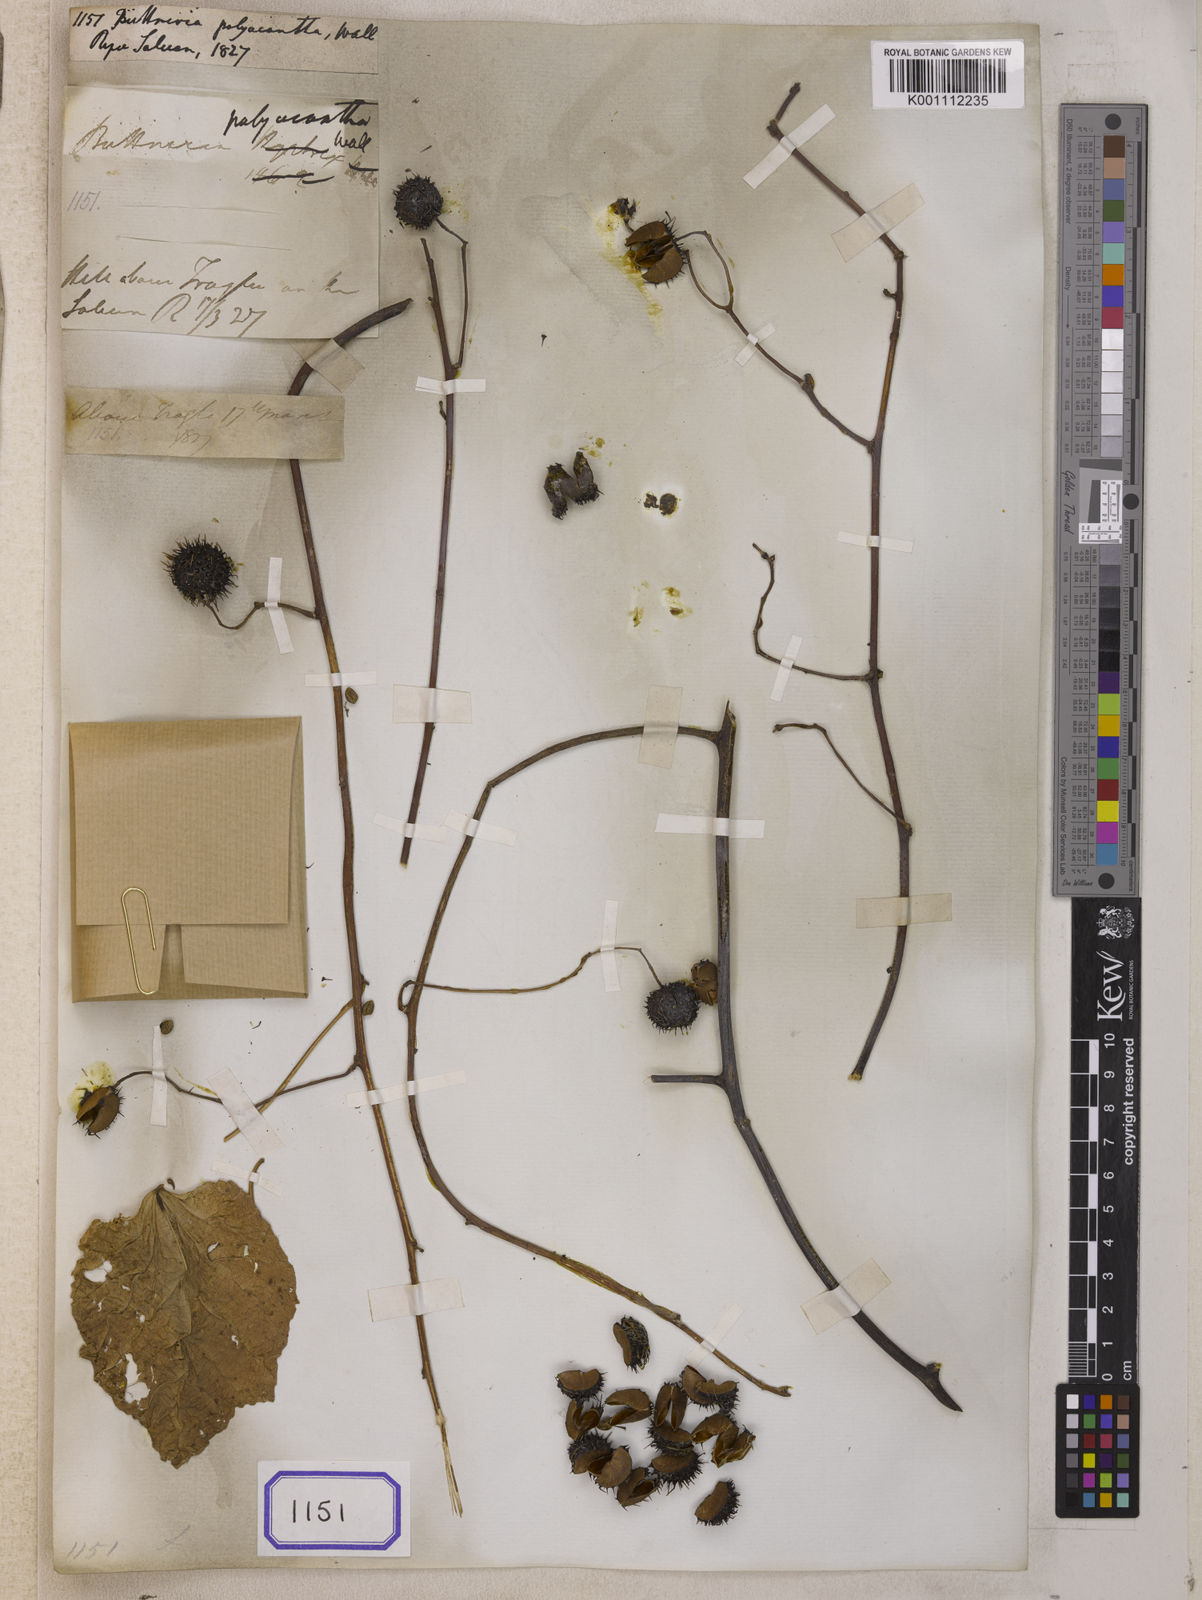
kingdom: Plantae
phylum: Tracheophyta
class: Magnoliopsida
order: Malvales
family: Malvaceae
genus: Byttneria
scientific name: Byttneria
